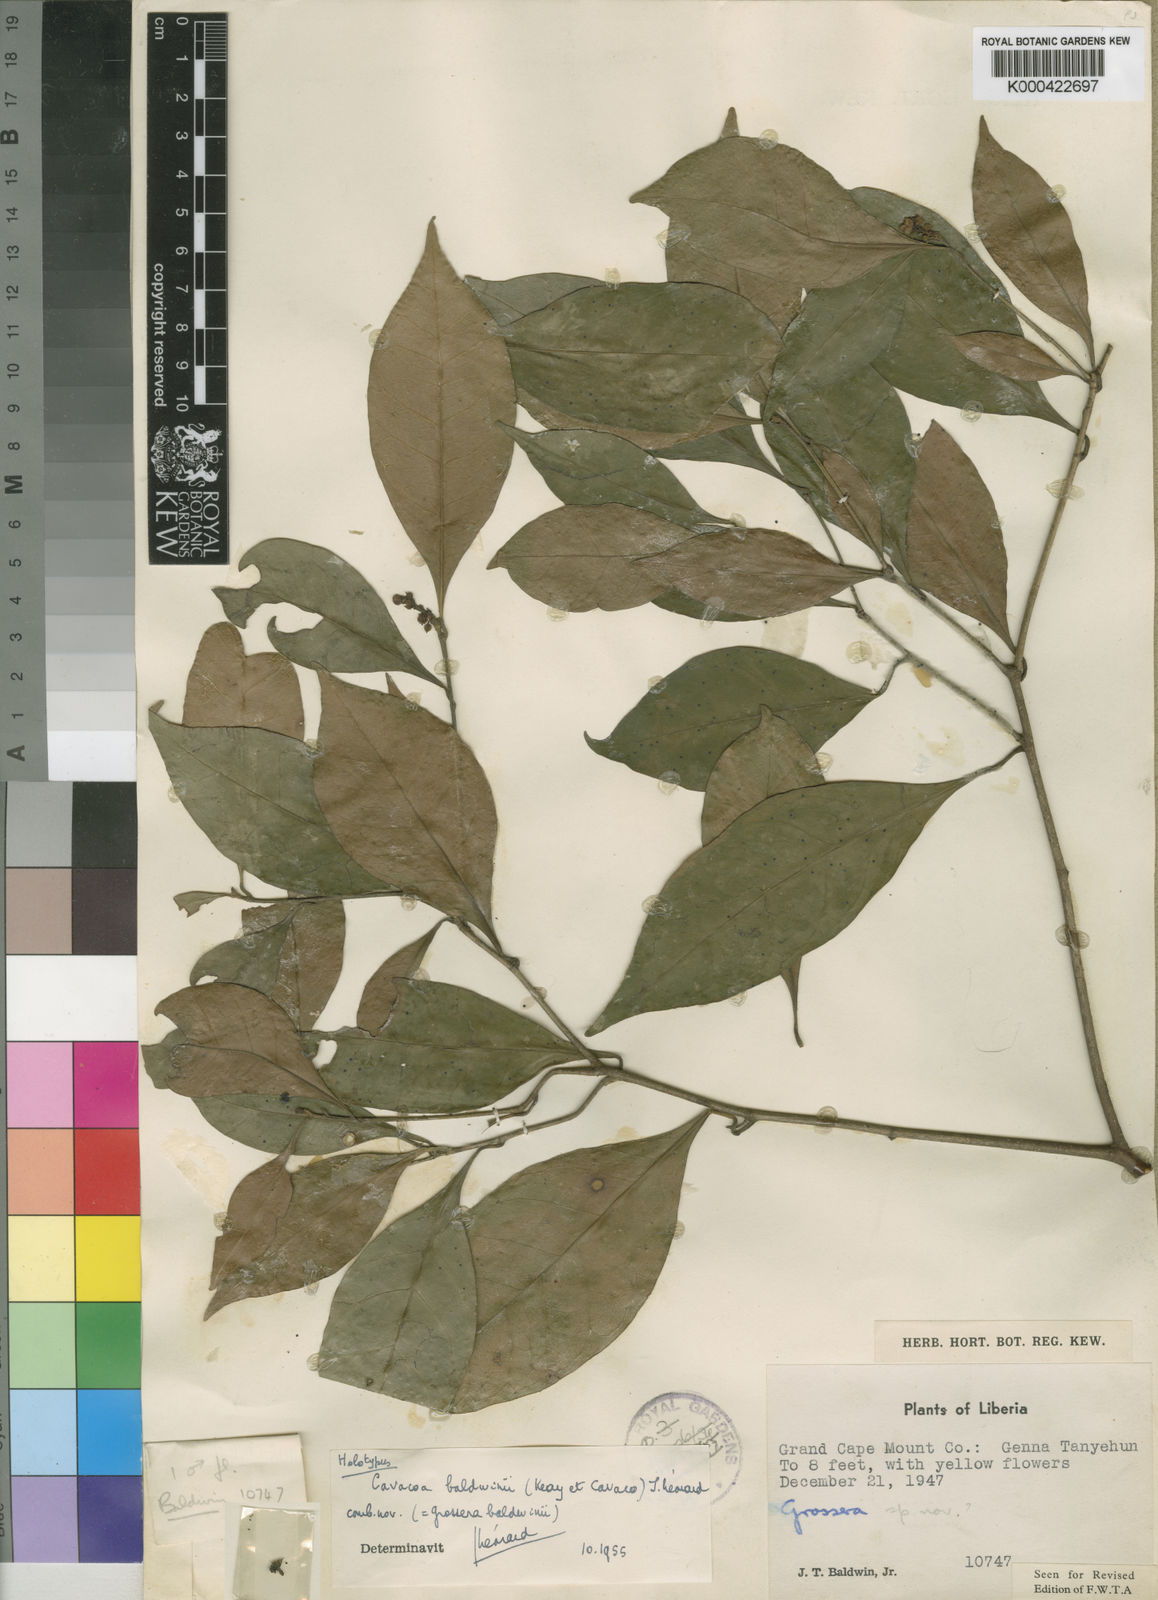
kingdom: Plantae
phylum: Tracheophyta
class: Magnoliopsida
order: Malpighiales
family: Euphorbiaceae
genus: Cavacoa
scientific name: Cavacoa
